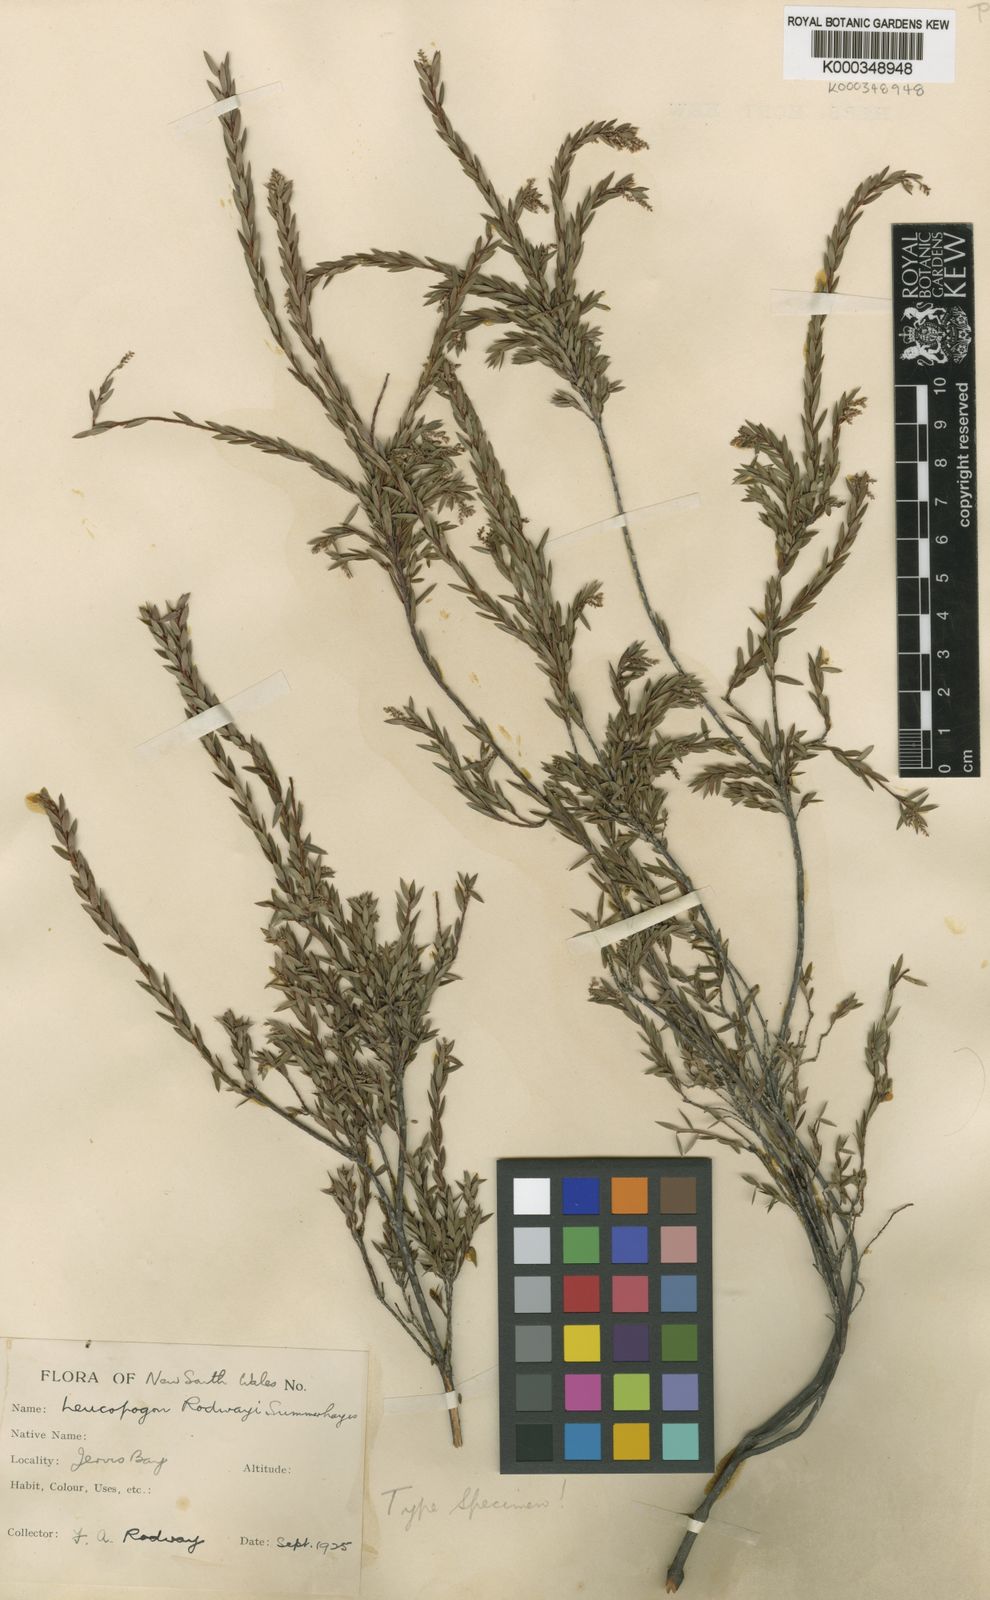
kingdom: Plantae
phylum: Tracheophyta
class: Magnoliopsida
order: Ericales
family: Ericaceae
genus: Leucopogon
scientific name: Leucopogon rodwayi
